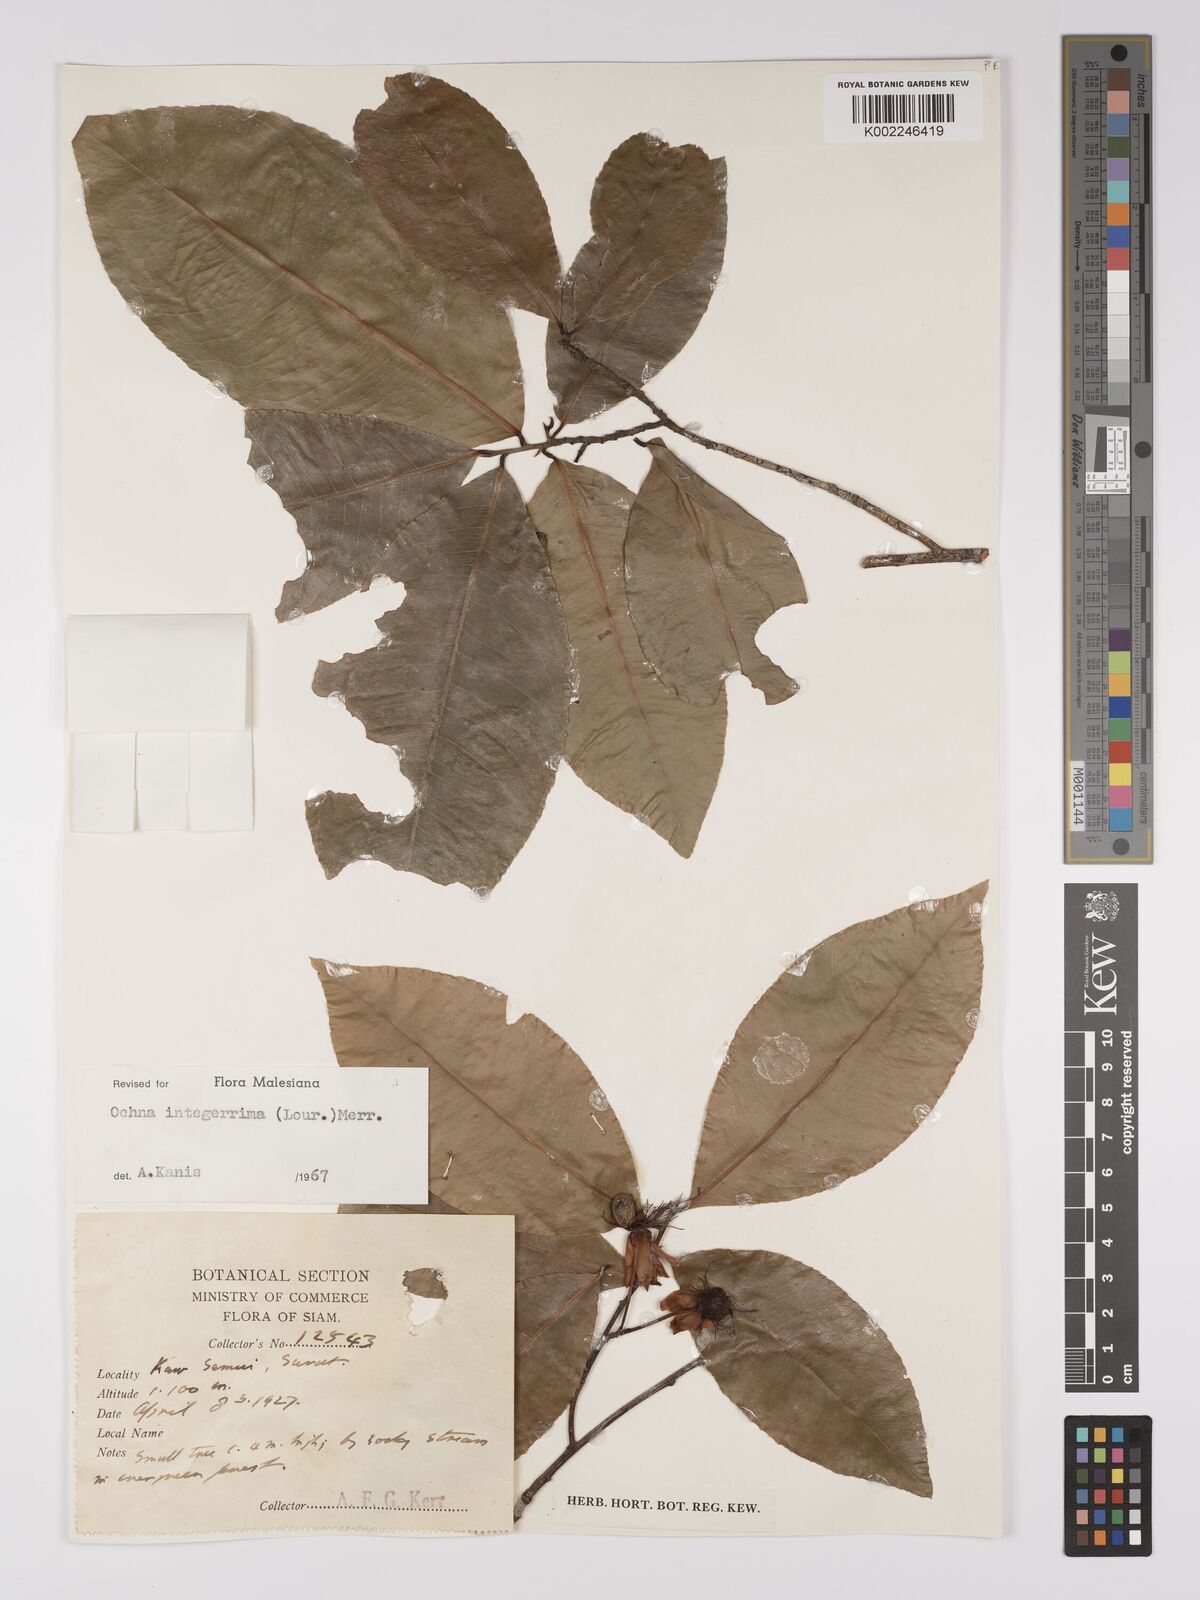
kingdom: Plantae
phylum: Tracheophyta
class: Magnoliopsida
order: Malpighiales
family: Ochnaceae
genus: Ochna
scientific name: Ochna integerrima
